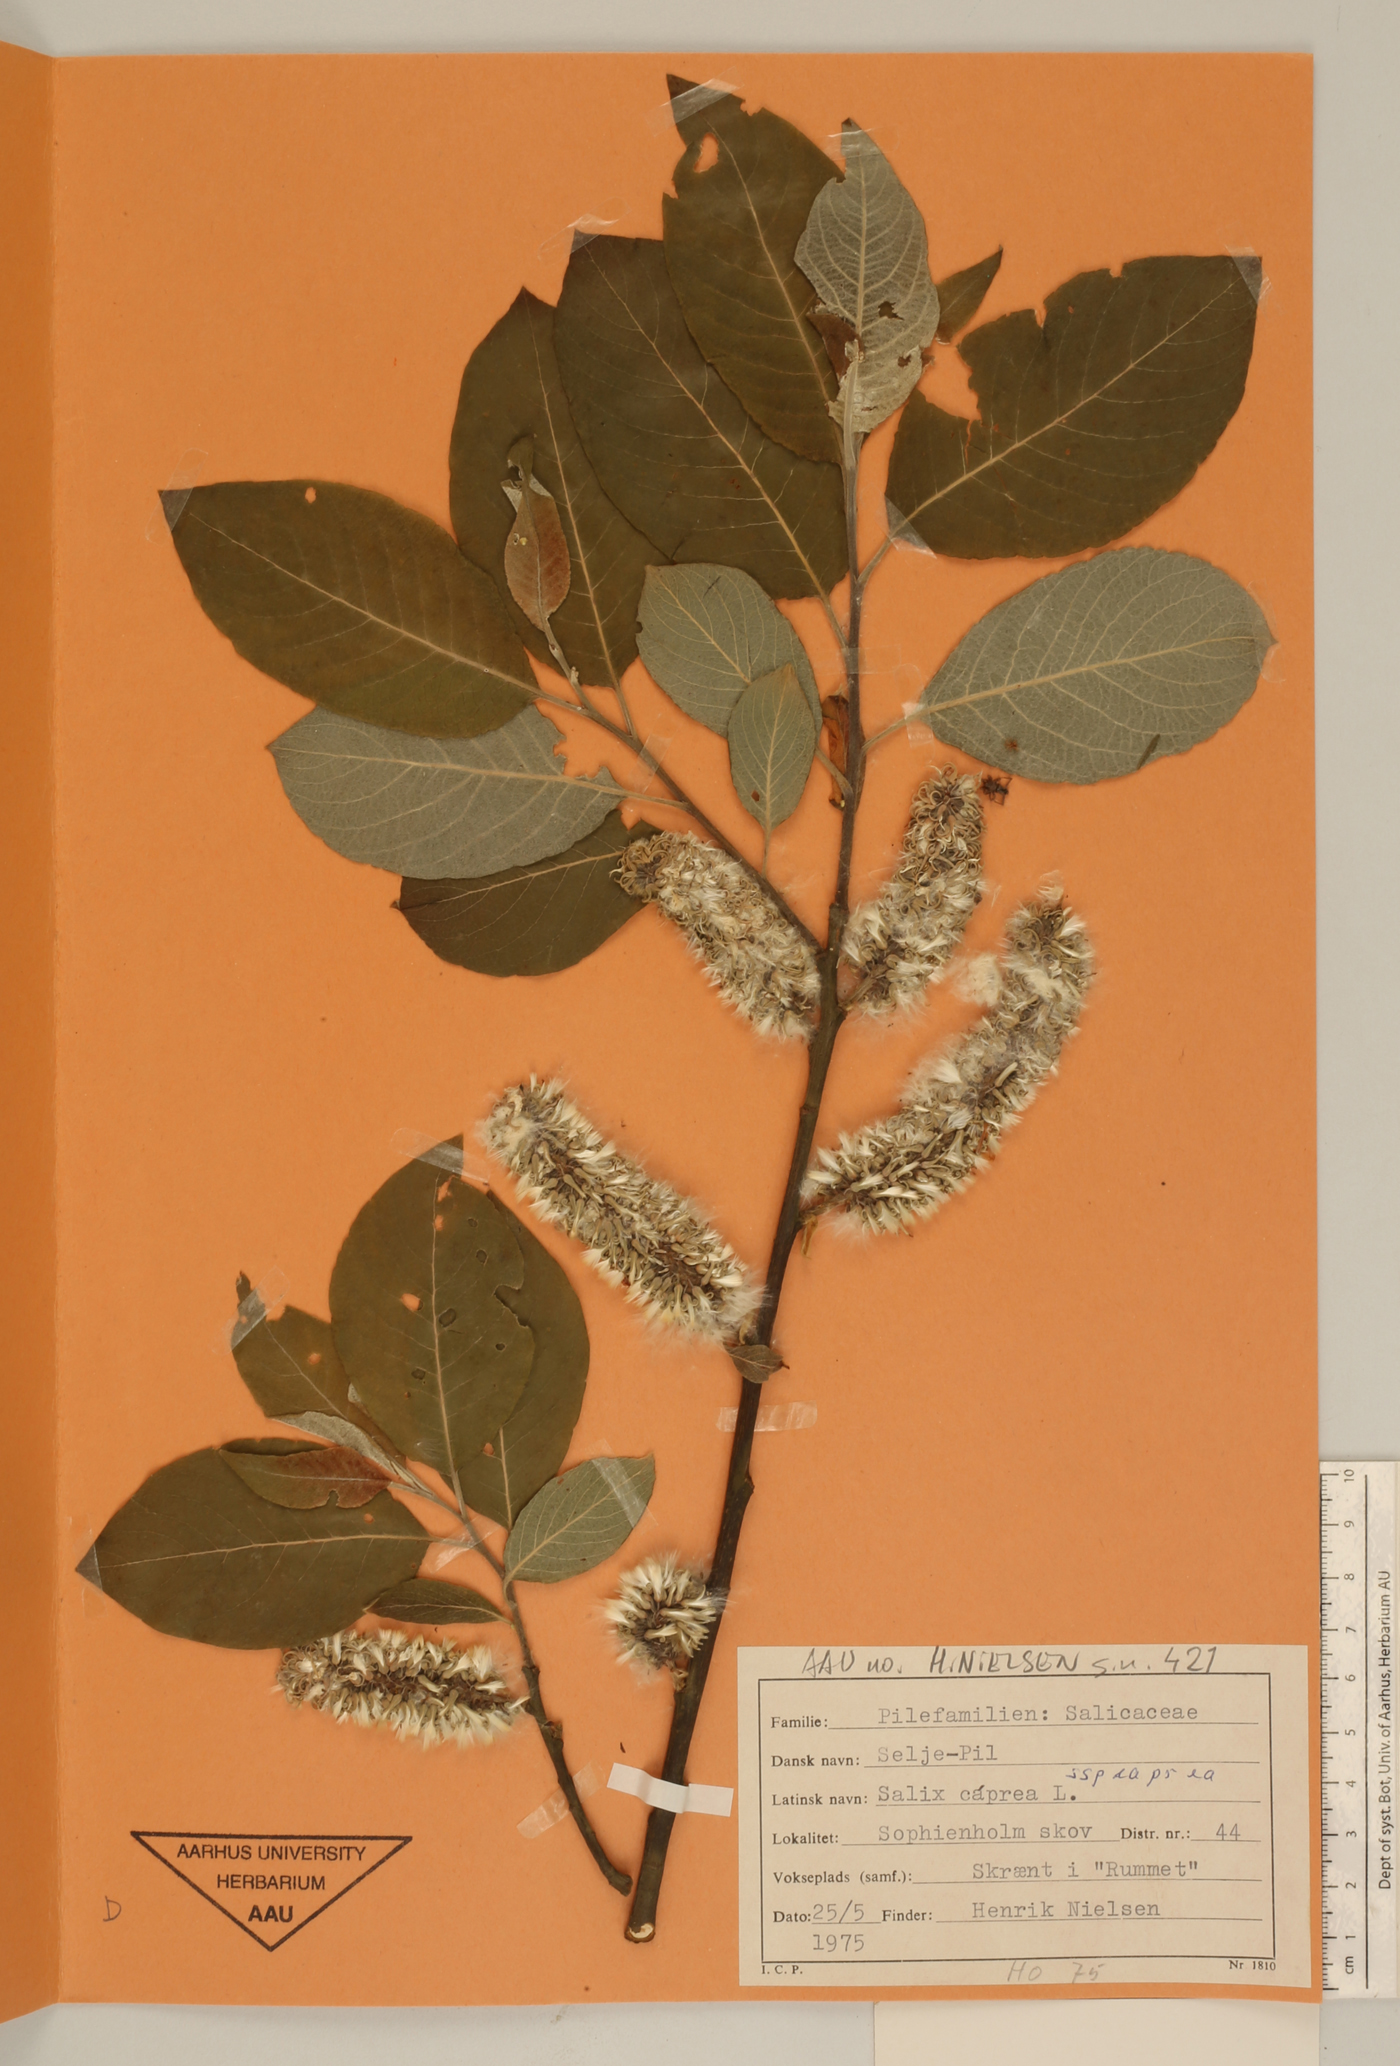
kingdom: Plantae
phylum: Tracheophyta
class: Magnoliopsida
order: Malpighiales
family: Salicaceae
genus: Salix
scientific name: Salix caprea
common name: Goat willow
